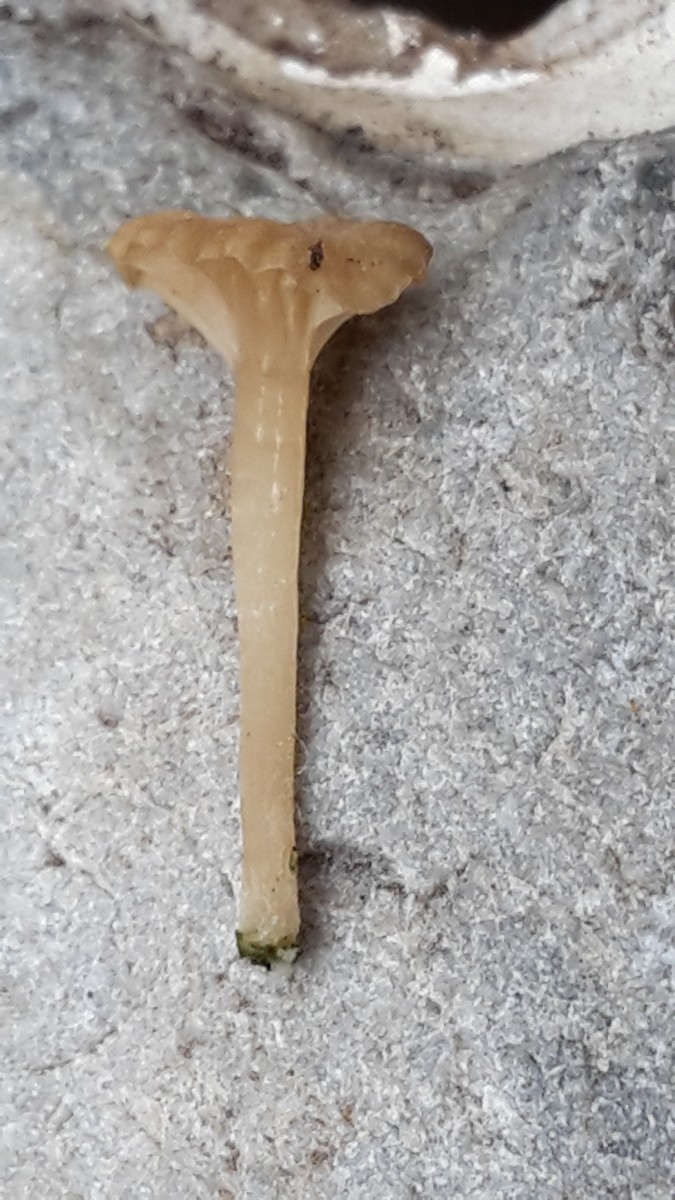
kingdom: Fungi
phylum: Basidiomycota
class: Agaricomycetes
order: Agaricales
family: Hygrophoraceae
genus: Arrhenia
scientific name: Arrhenia peltigerina
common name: skjoldlav-fontænehat
